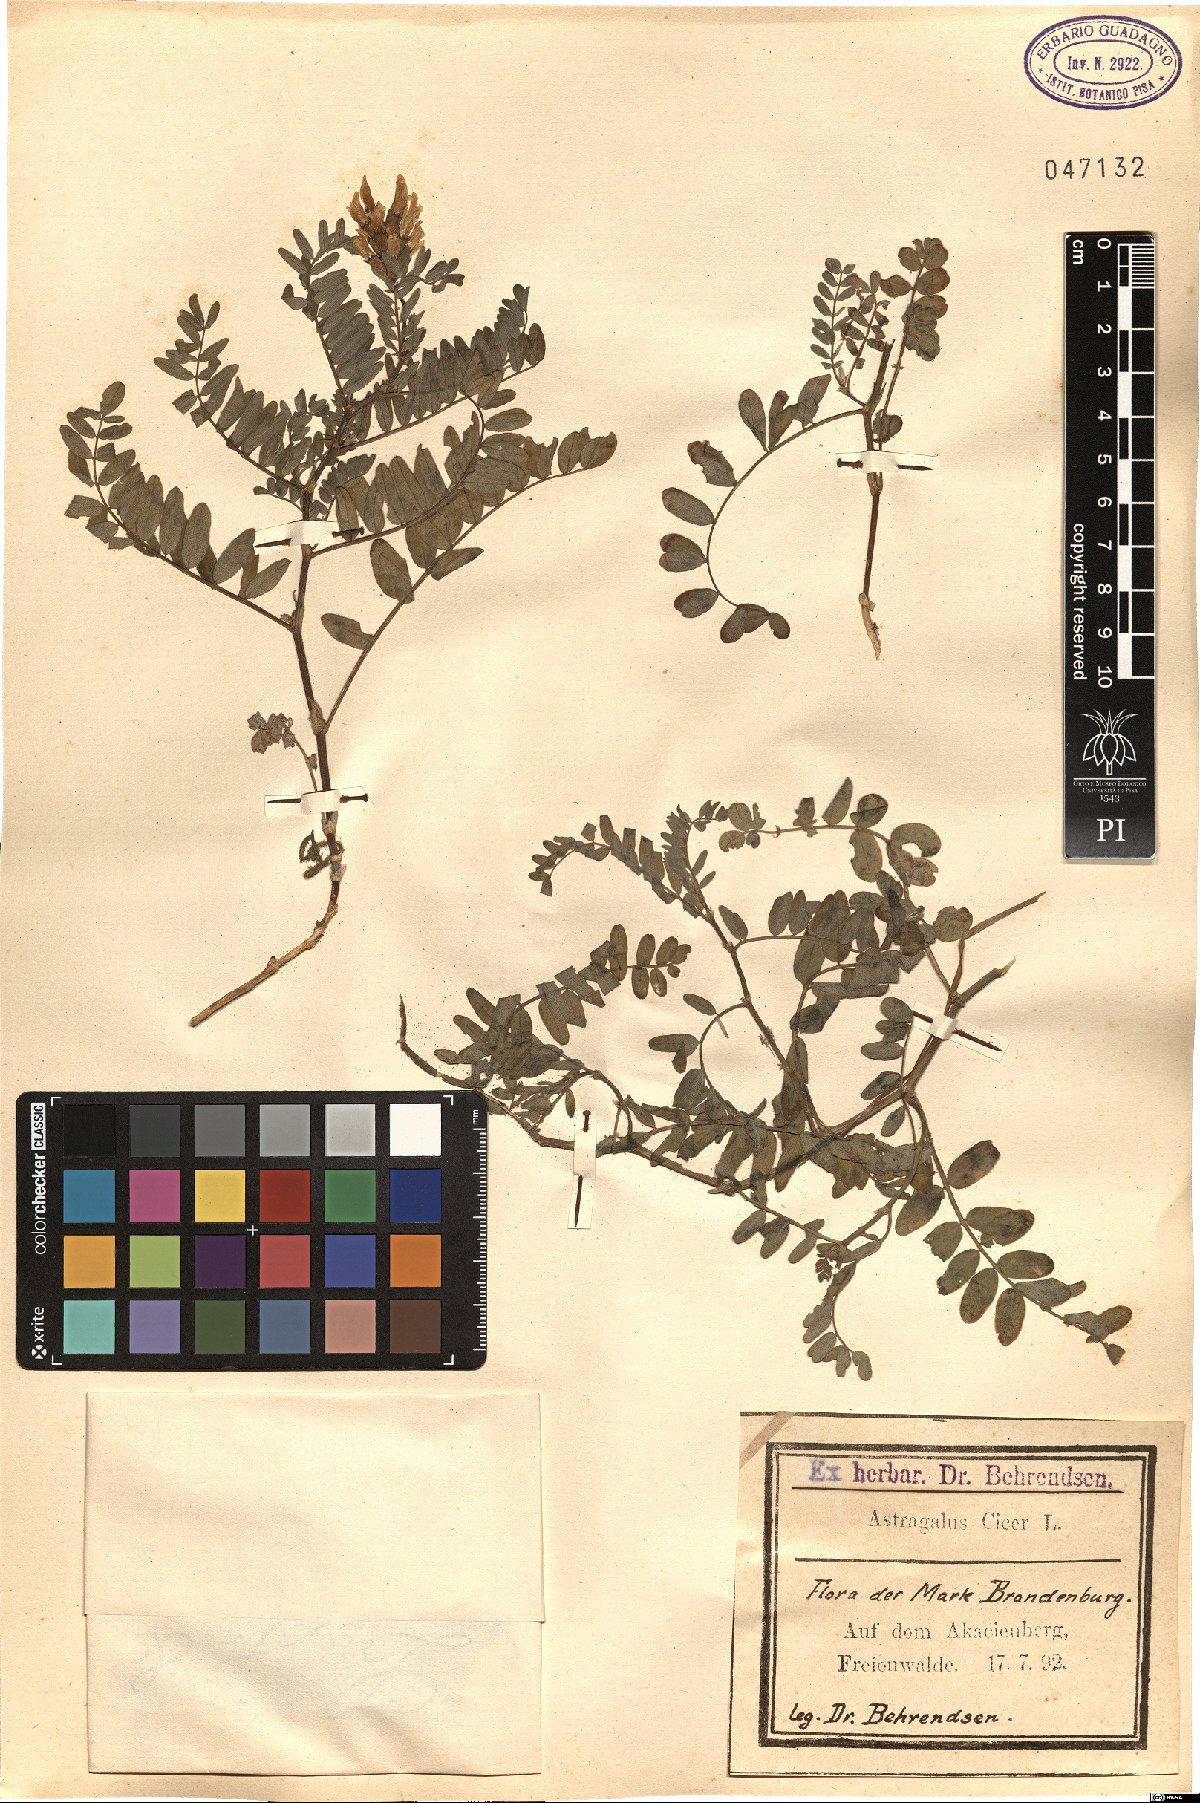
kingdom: Plantae
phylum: Tracheophyta
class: Magnoliopsida
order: Fabales
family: Fabaceae
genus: Astragalus
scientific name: Astragalus cicer
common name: Chick-pea milk-vetch
